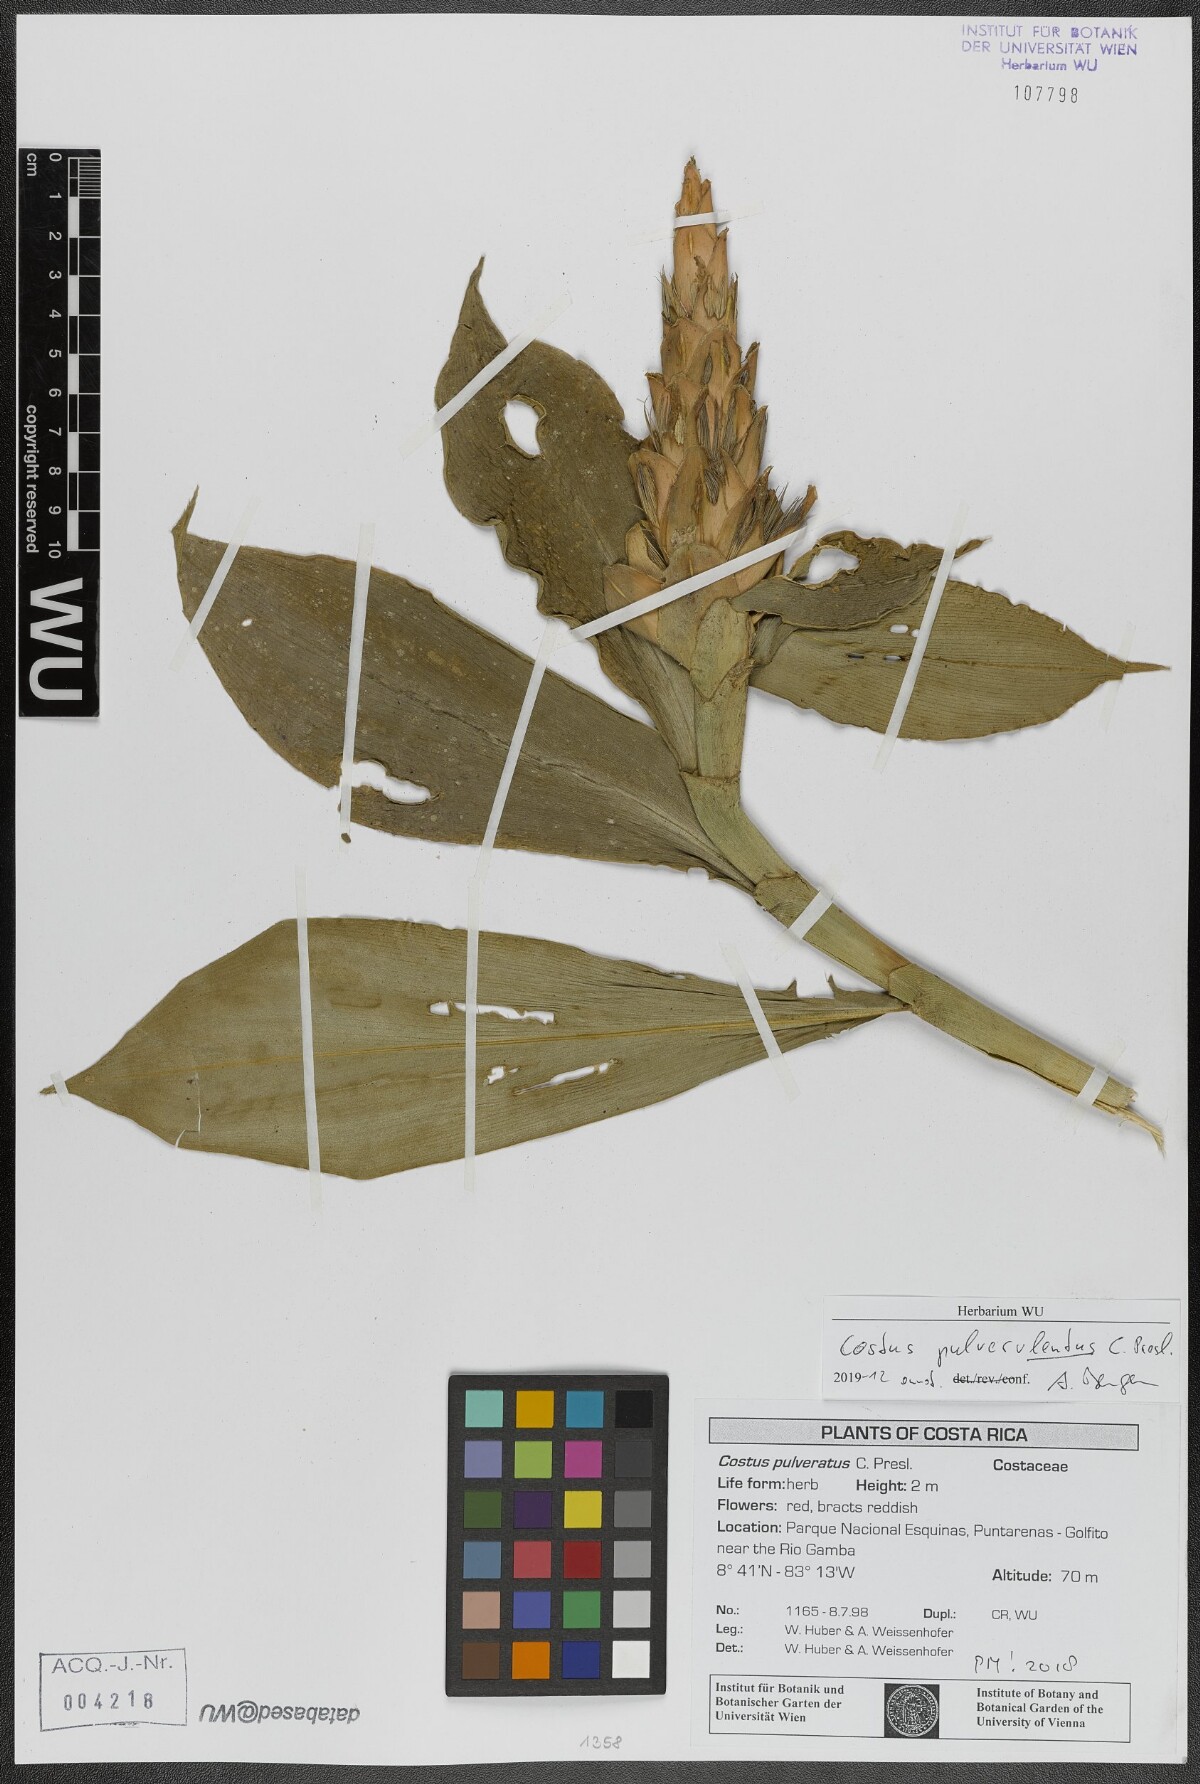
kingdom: Plantae
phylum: Tracheophyta
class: Liliopsida
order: Zingiberales
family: Costaceae
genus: Costus
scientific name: Costus pulverulentus
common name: Spiral ginger
